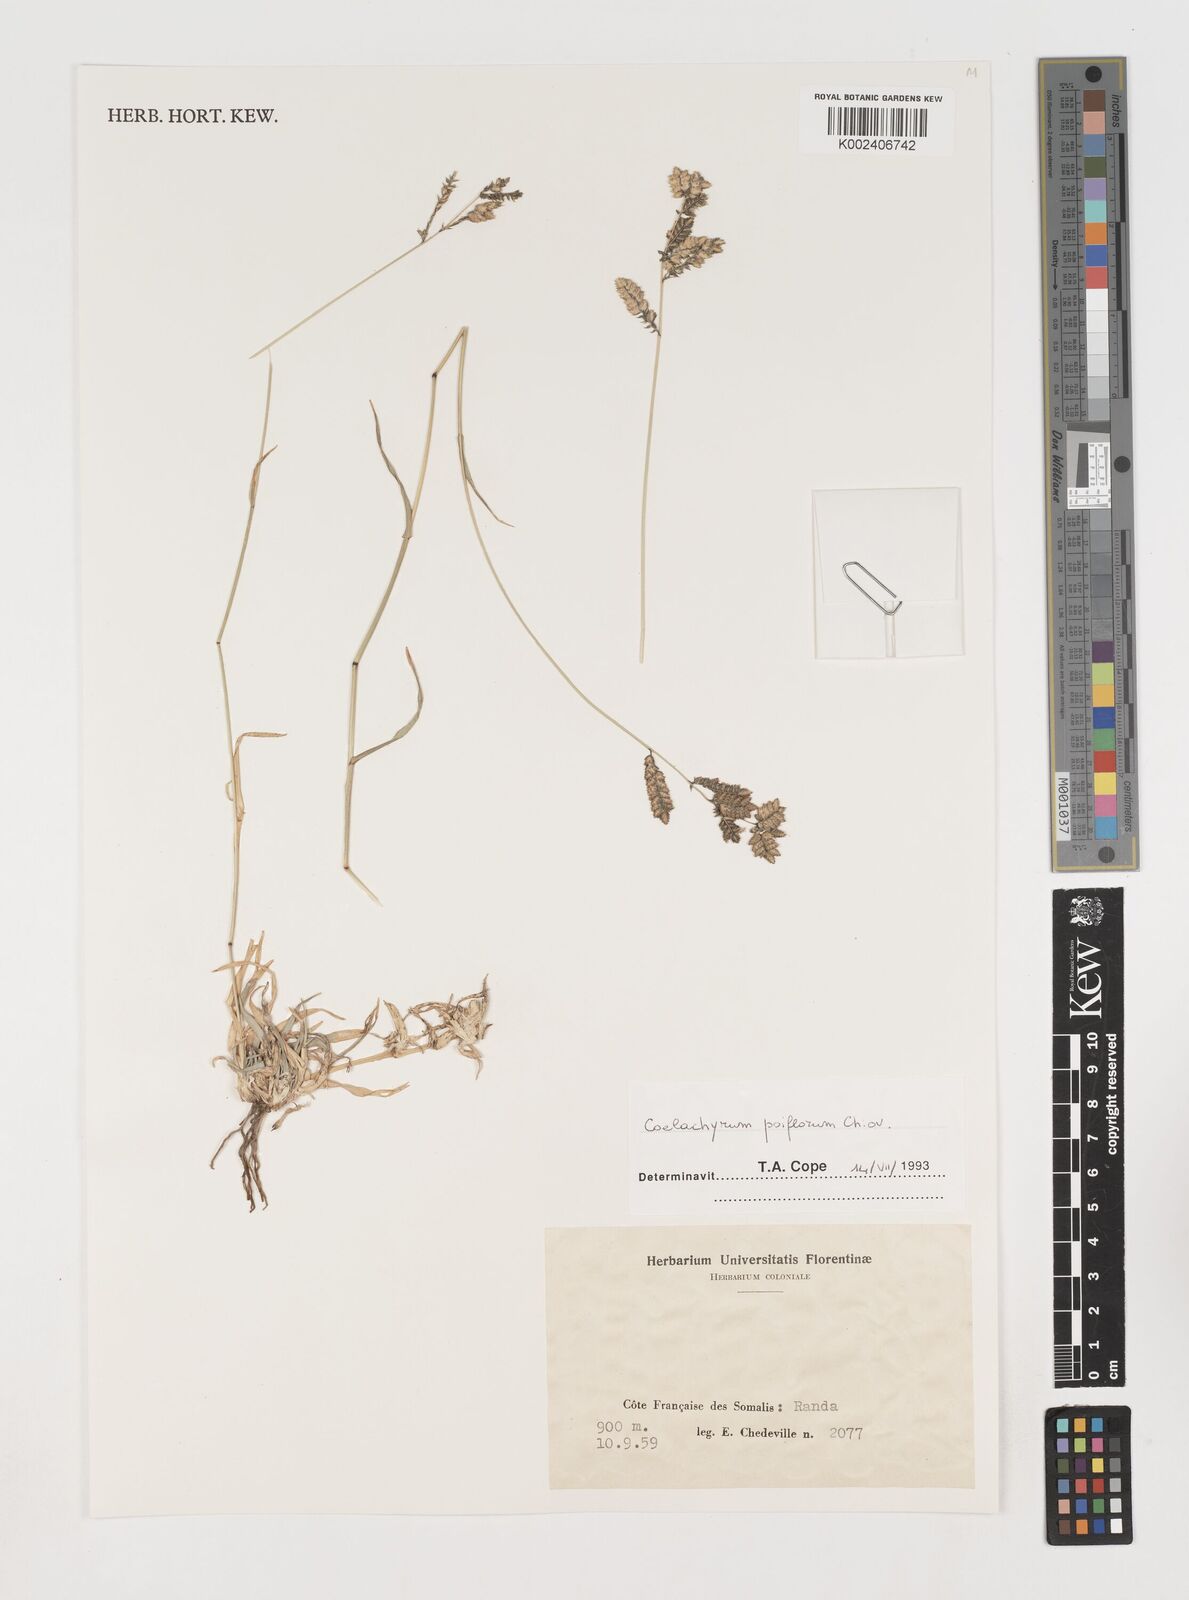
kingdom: Plantae
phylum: Tracheophyta
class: Liliopsida
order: Poales
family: Poaceae
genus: Coelachyrum
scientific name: Coelachyrum poiflorum
